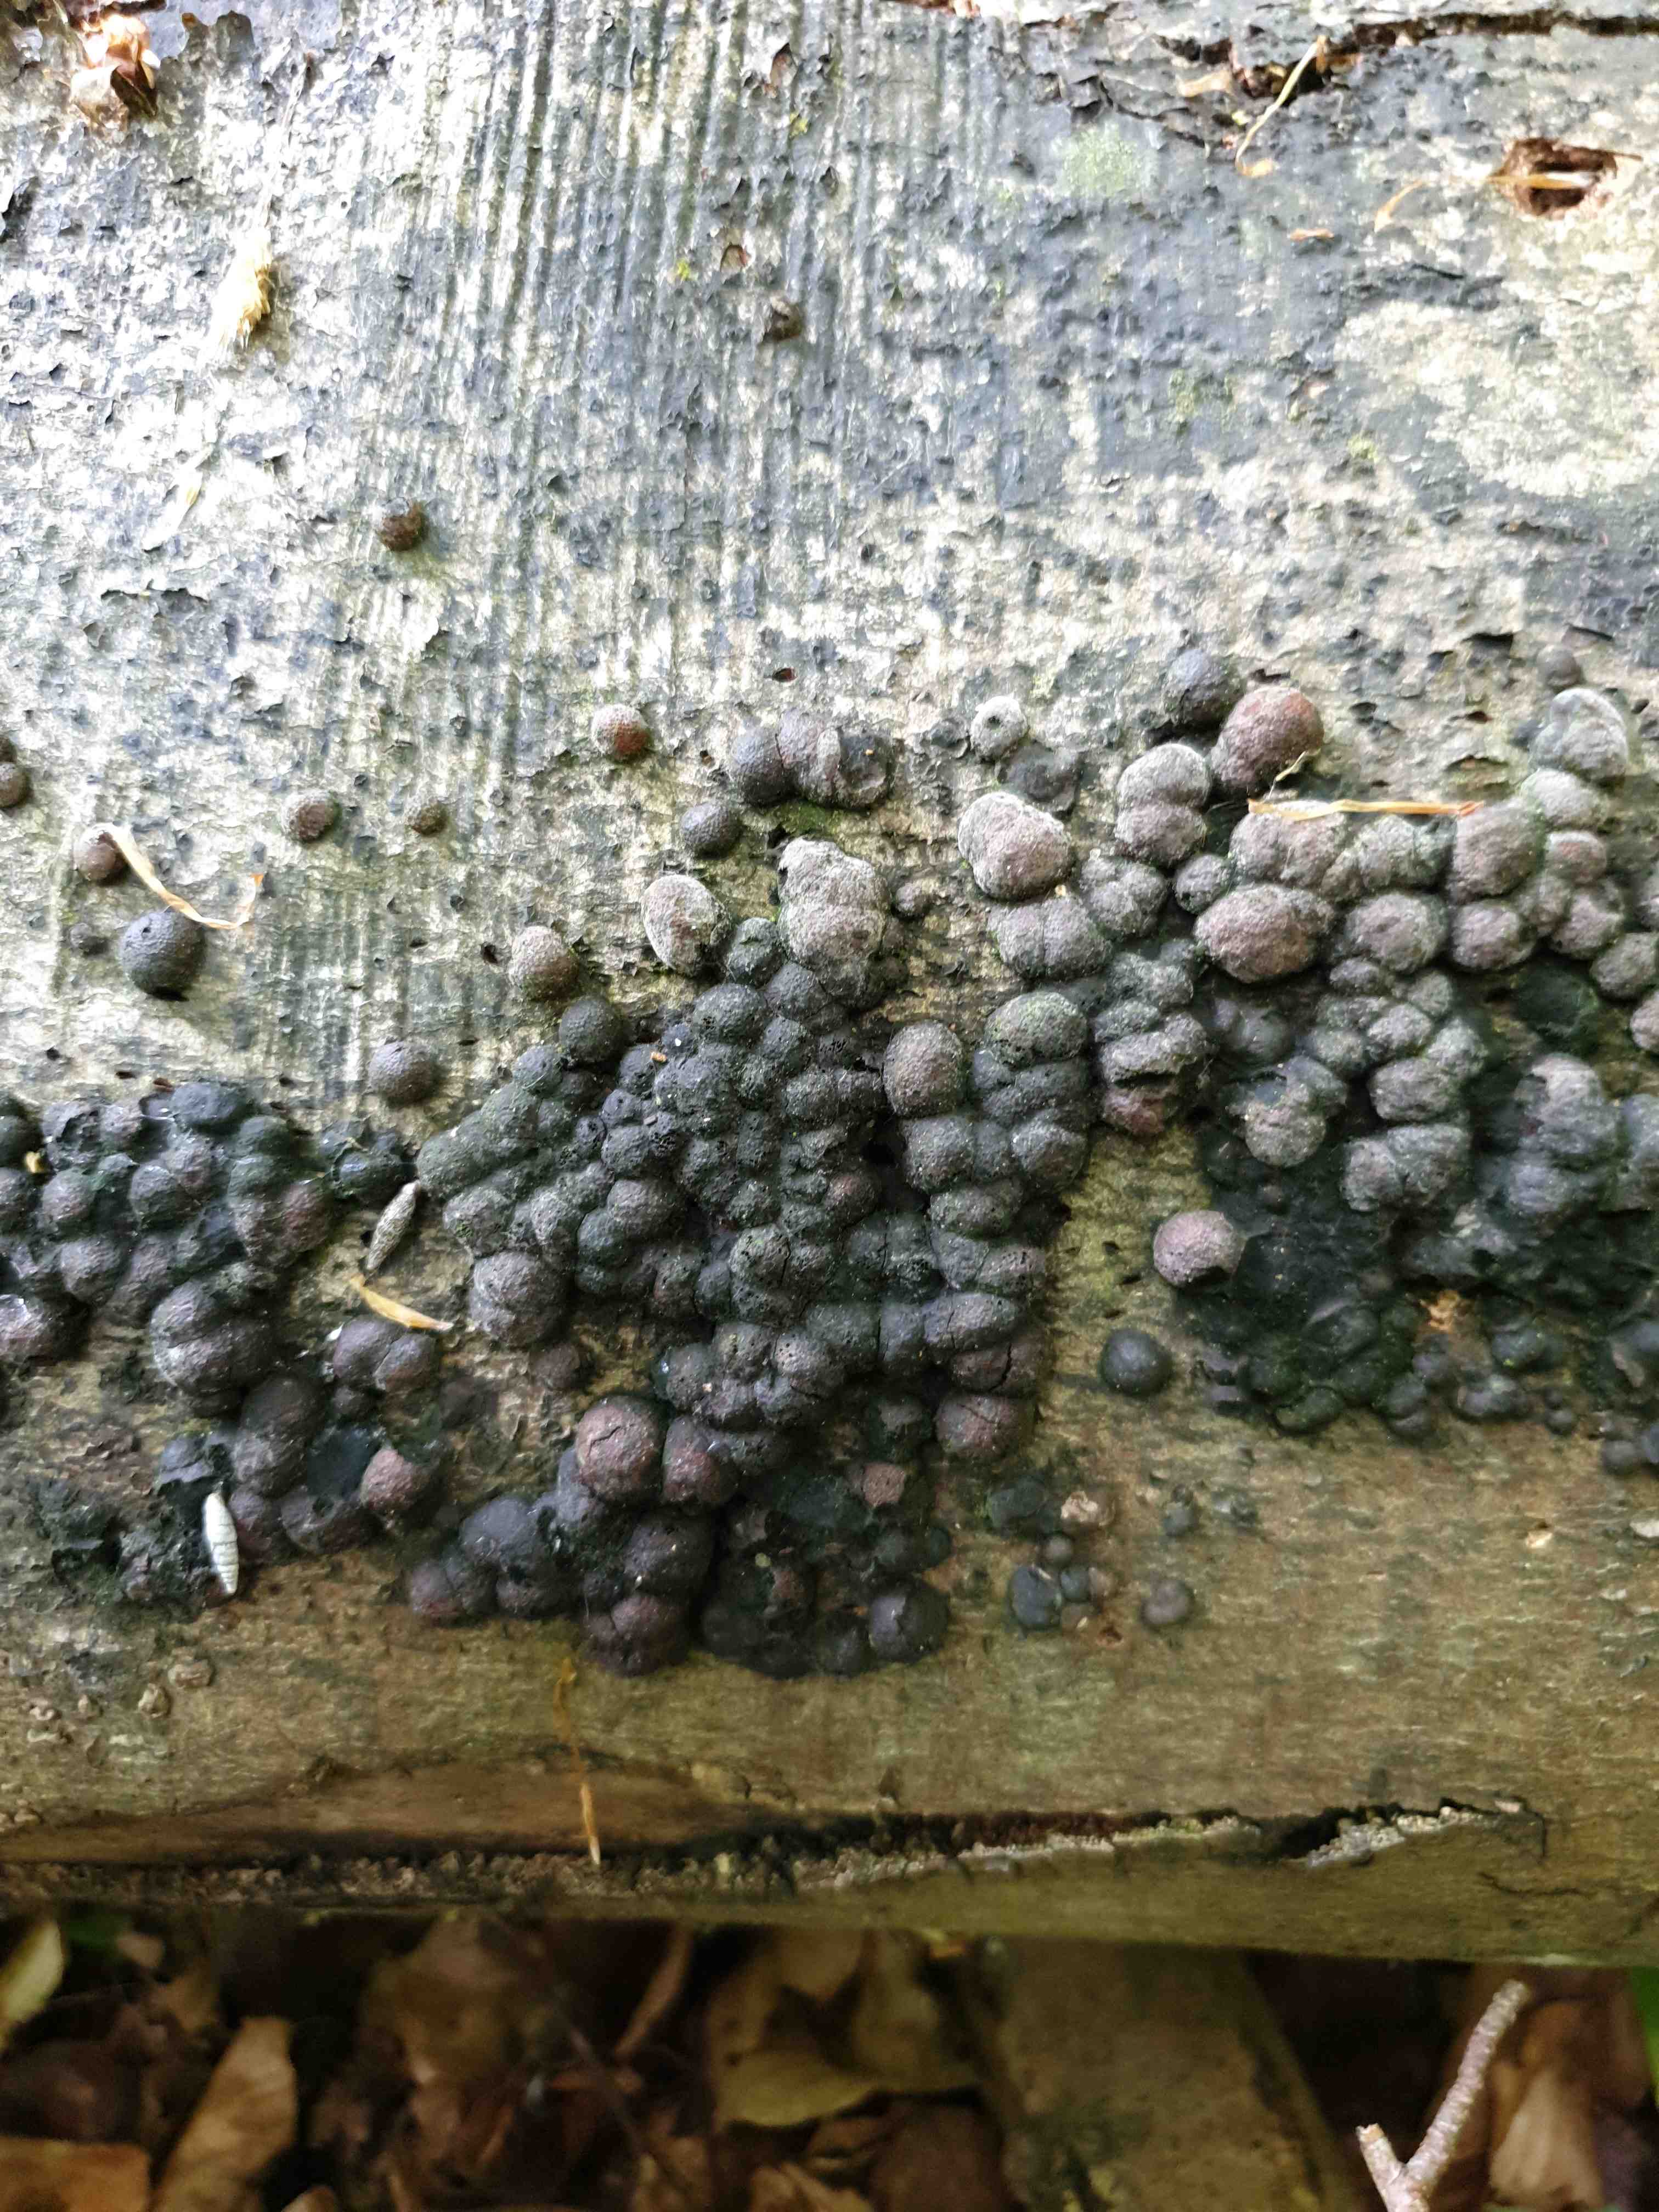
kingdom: Fungi
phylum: Ascomycota
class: Sordariomycetes
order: Xylariales
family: Hypoxylaceae
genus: Hypoxylon
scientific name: Hypoxylon fragiforme
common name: kuljordbær
